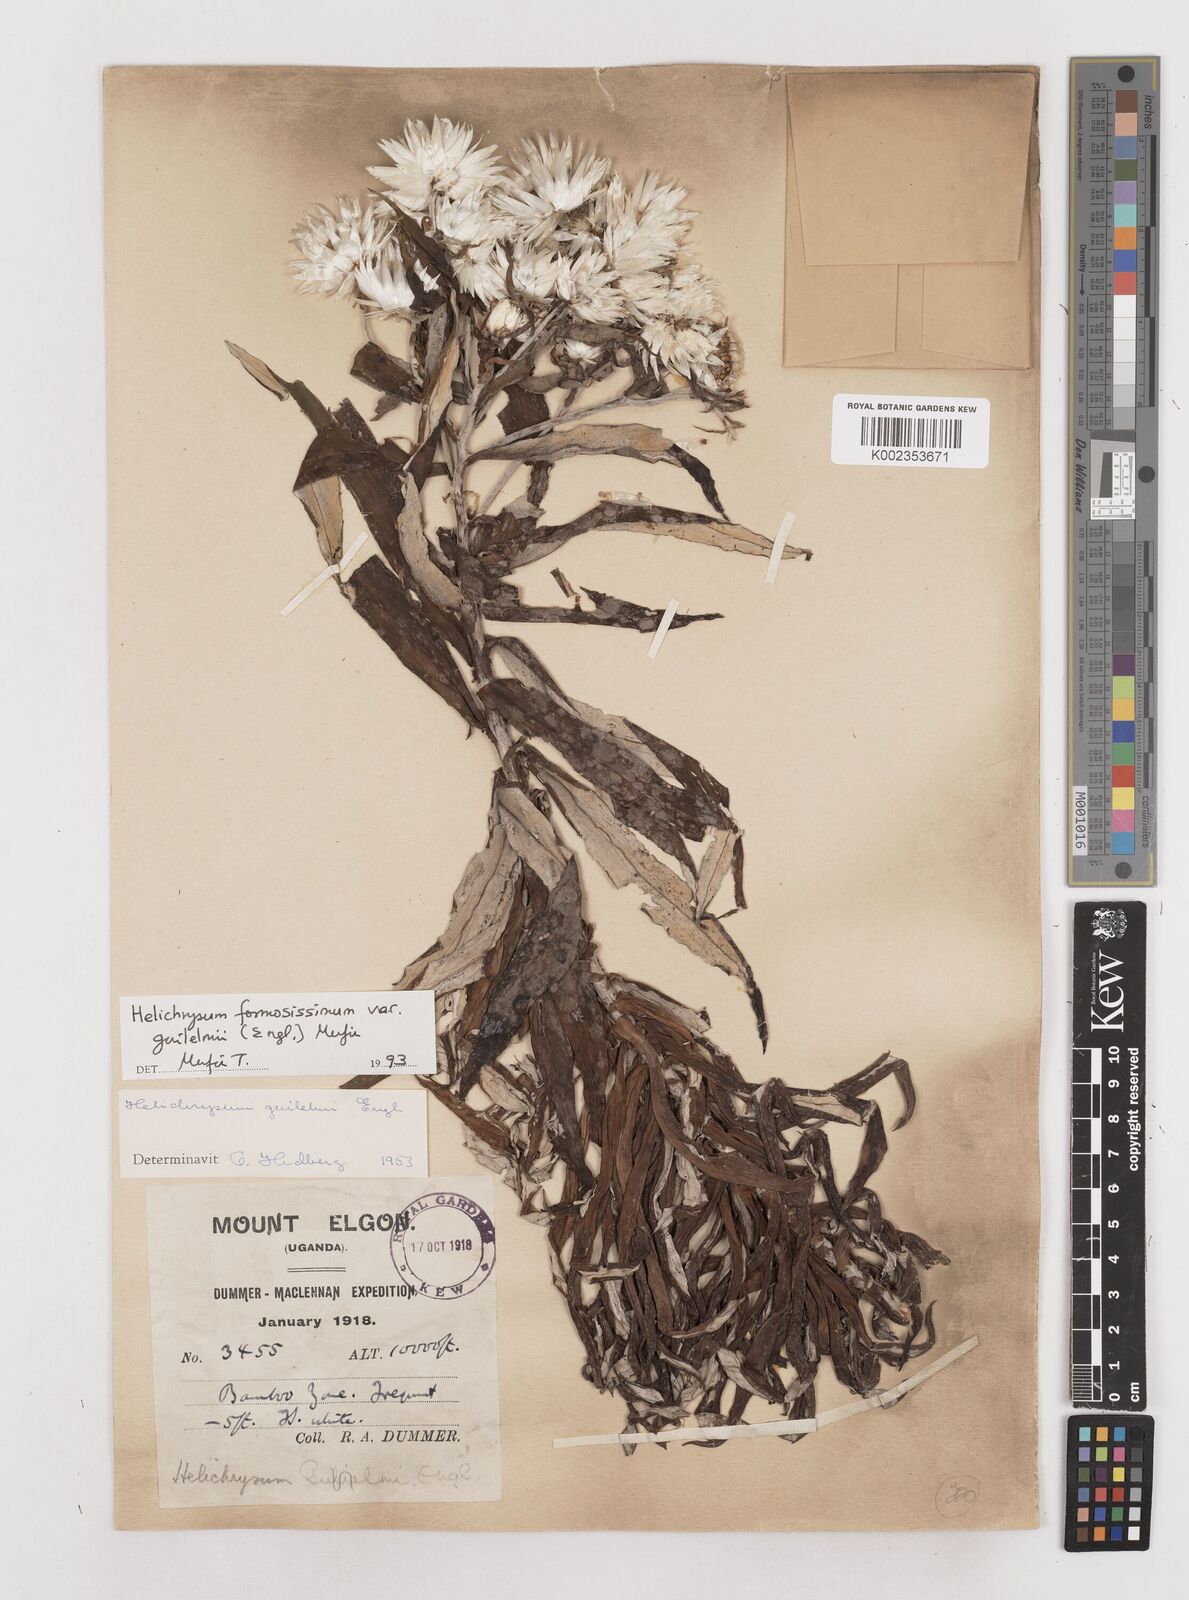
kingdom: Plantae
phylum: Tracheophyta
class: Magnoliopsida
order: Asterales
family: Asteraceae
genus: Helichrysum
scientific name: Helichrysum formosissimum
